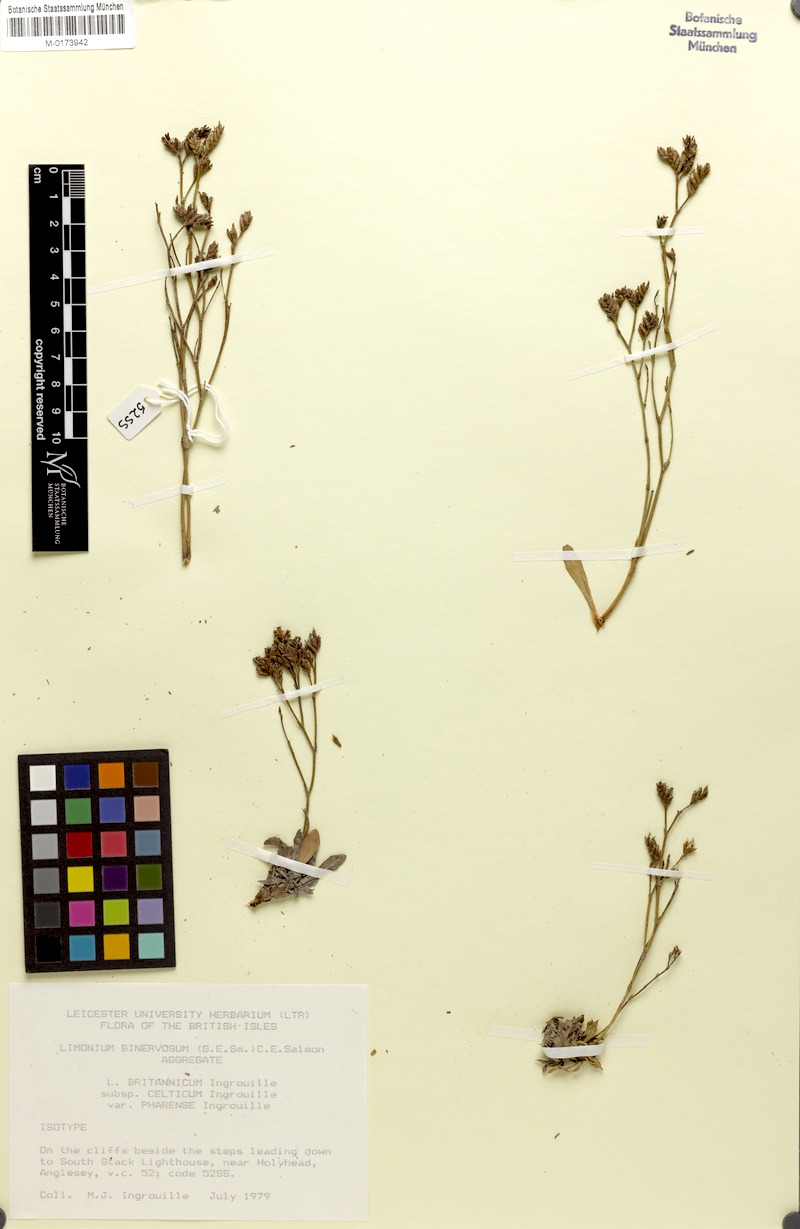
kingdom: Plantae
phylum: Tracheophyta
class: Magnoliopsida
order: Caryophyllales
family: Plumbaginaceae
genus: Limonium
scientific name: Limonium britannicum
